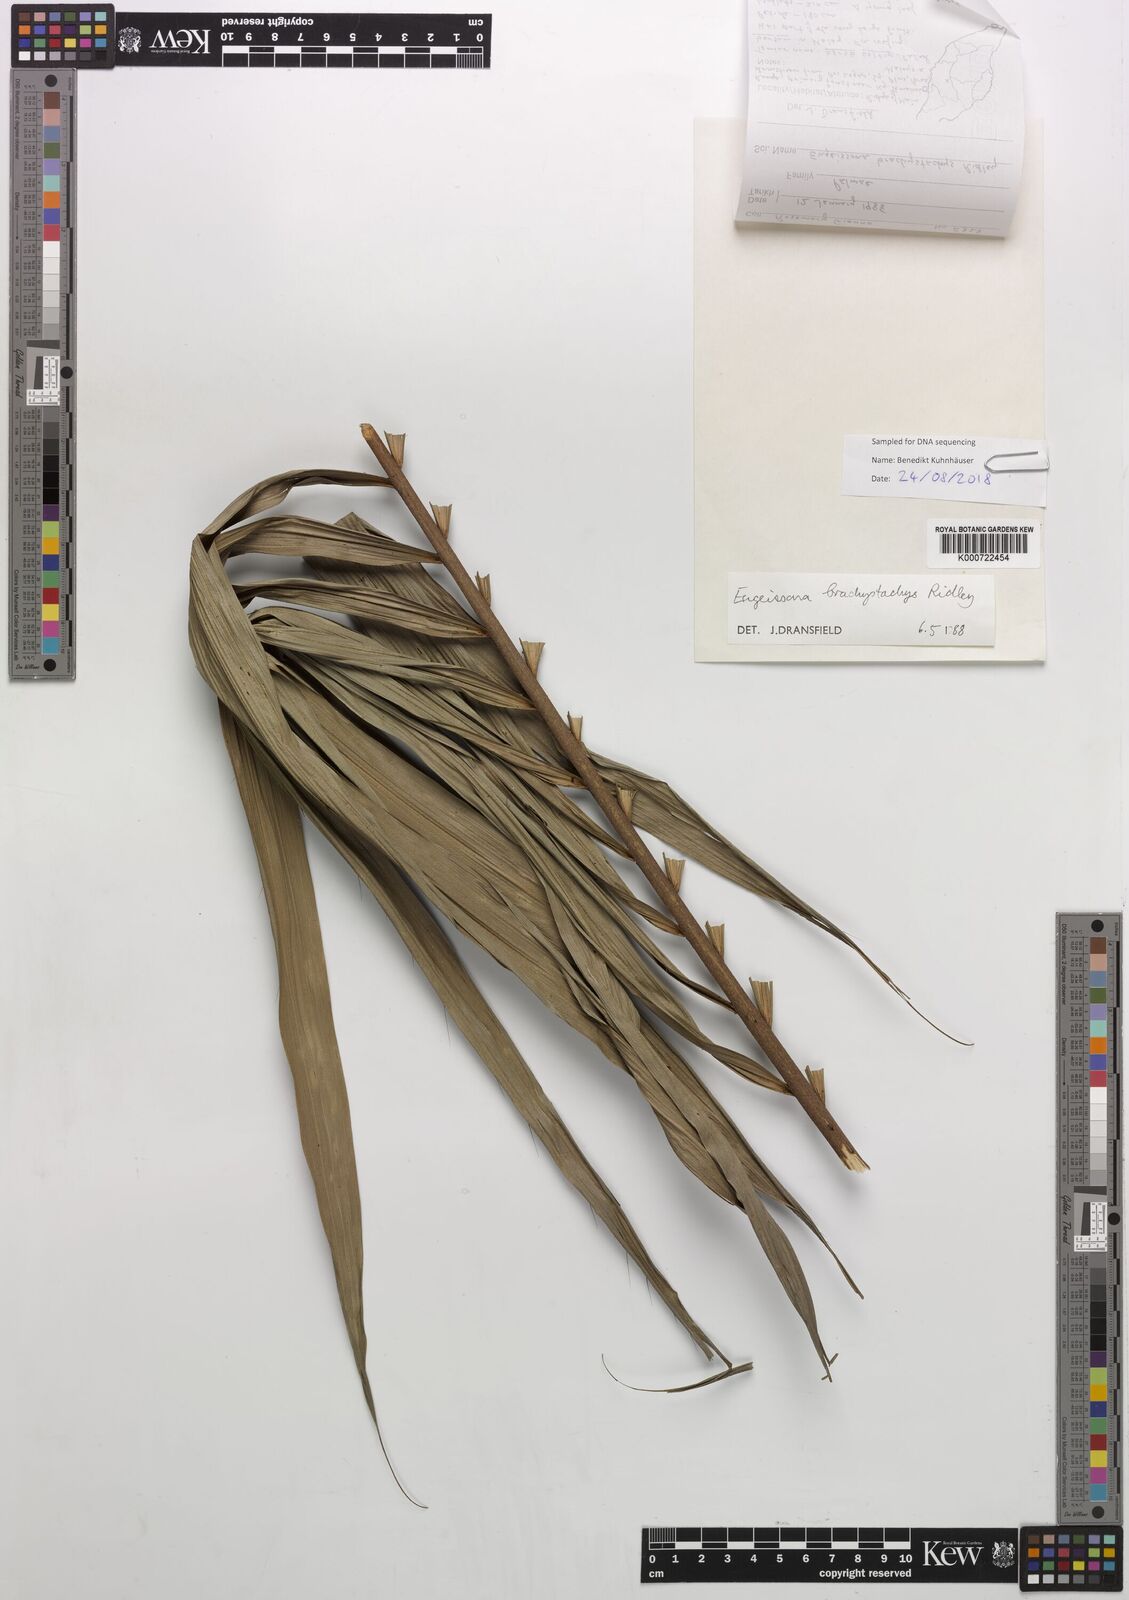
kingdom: Plantae
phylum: Tracheophyta
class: Liliopsida
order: Arecales
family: Arecaceae
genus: Eugeissona
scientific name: Eugeissona brachystachys
